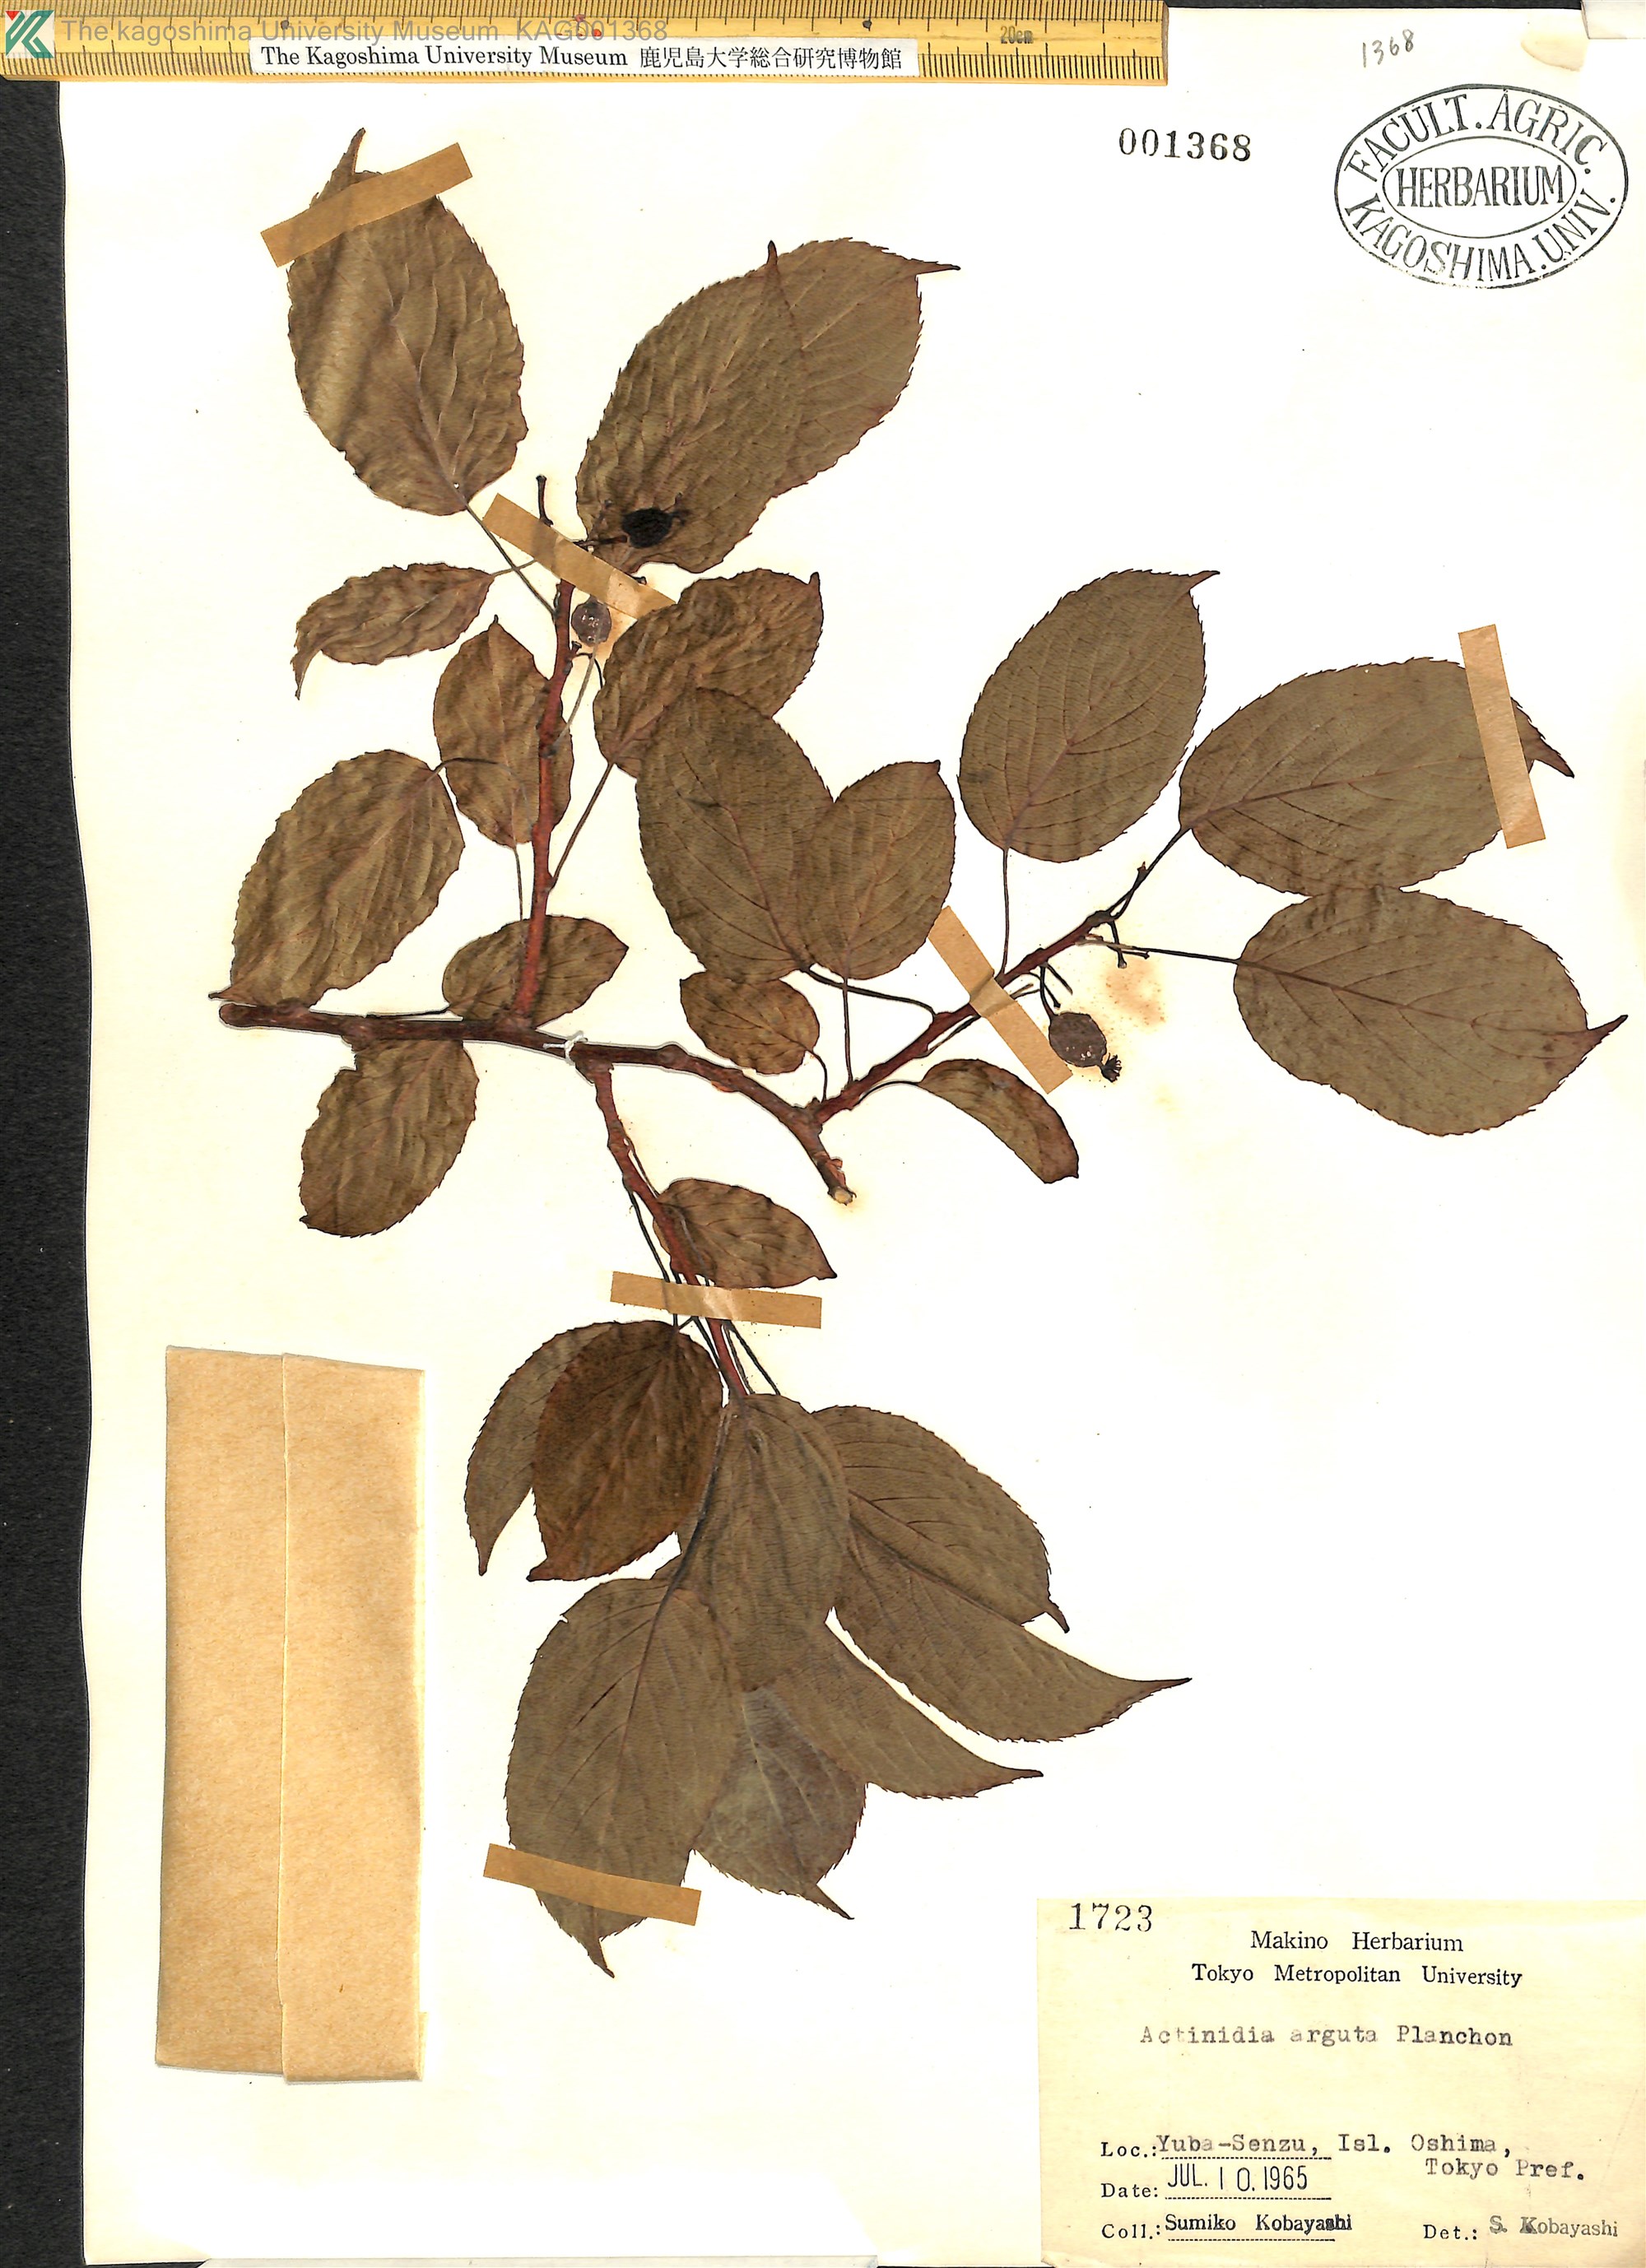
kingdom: Plantae
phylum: Tracheophyta
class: Magnoliopsida
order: Ericales
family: Actinidiaceae
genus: Actinidia
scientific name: Actinidia arguta
